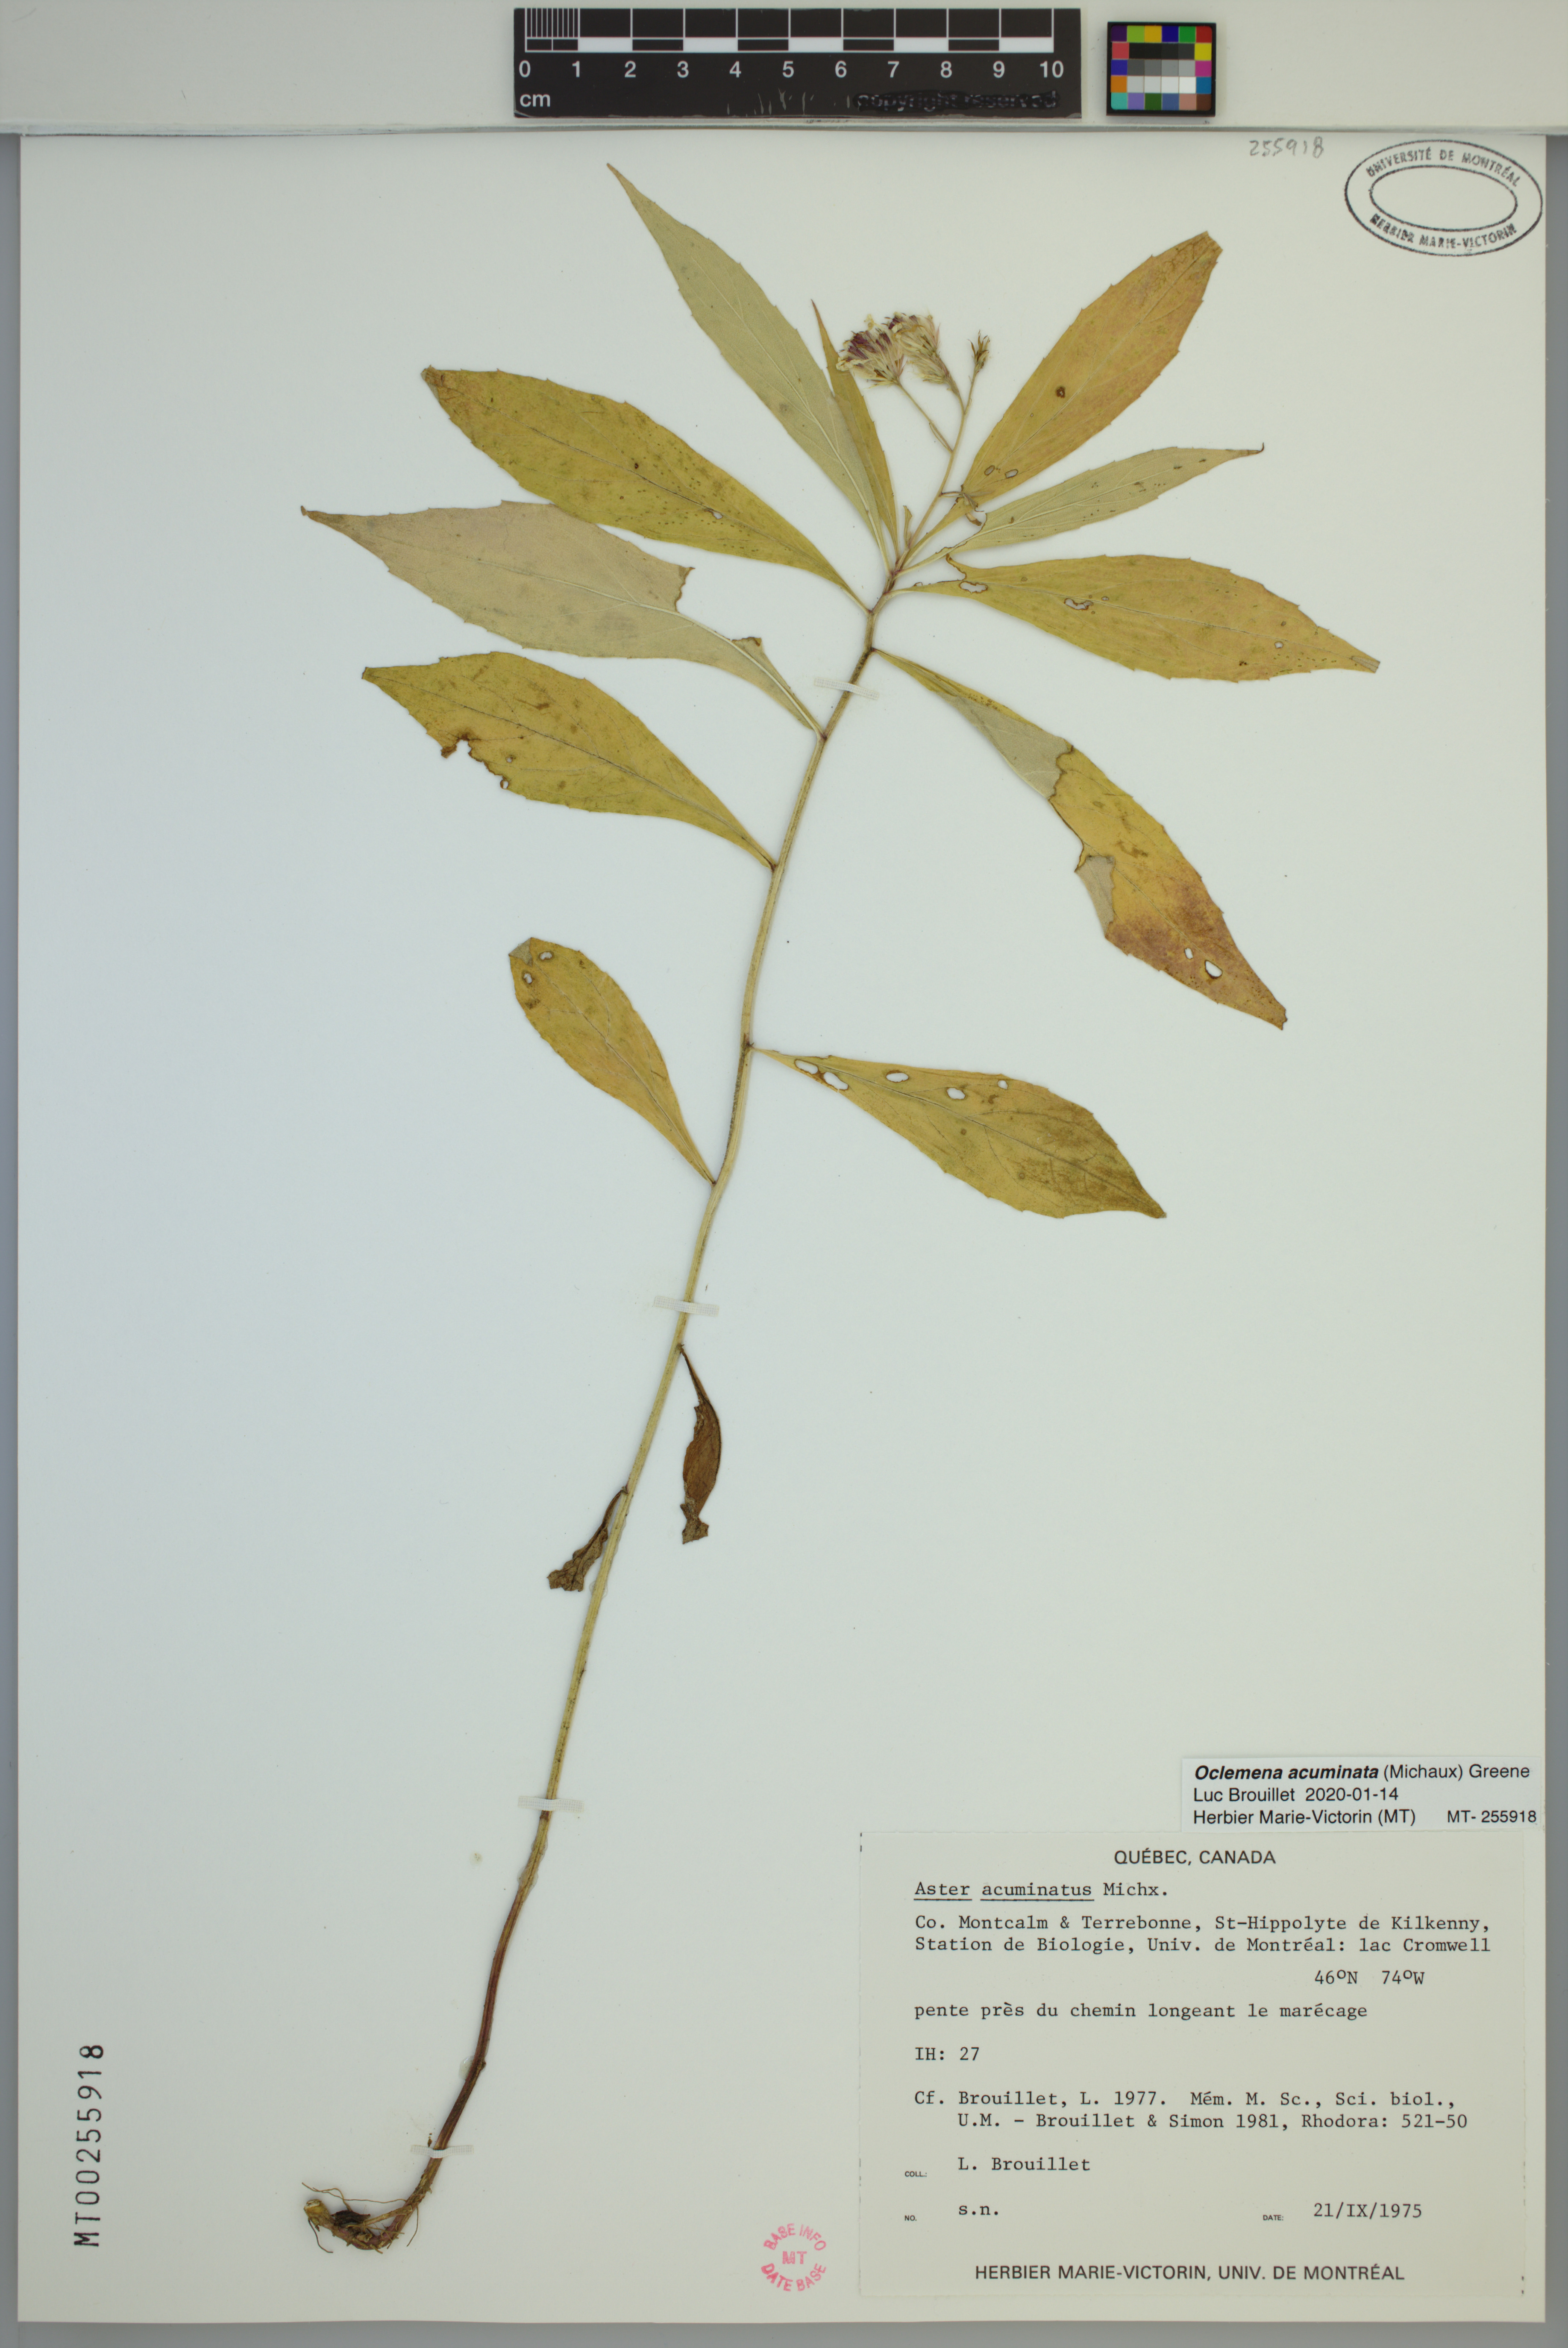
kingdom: Plantae
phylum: Tracheophyta
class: Magnoliopsida
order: Asterales
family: Asteraceae
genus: Oclemena
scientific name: Oclemena acuminata
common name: Mountain aster
